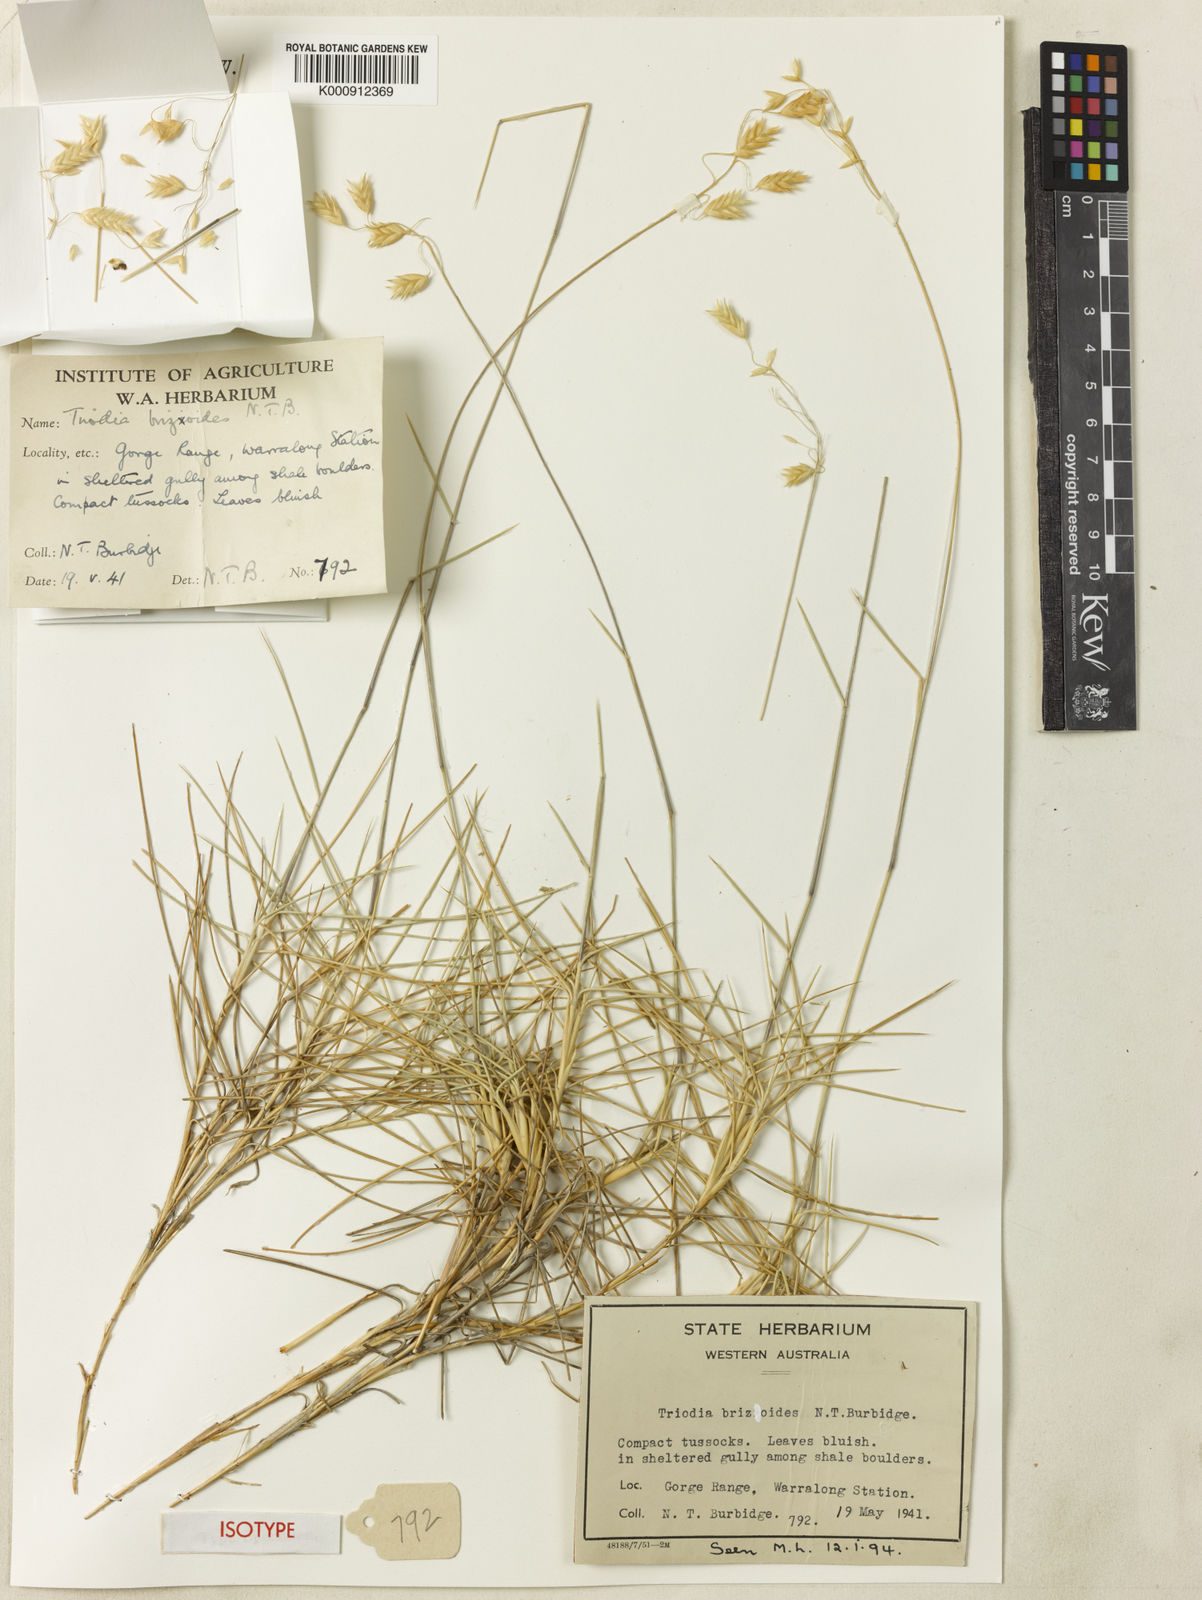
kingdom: Plantae
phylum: Tracheophyta
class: Liliopsida
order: Poales
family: Poaceae
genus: Triodia
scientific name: Triodia brizoides
